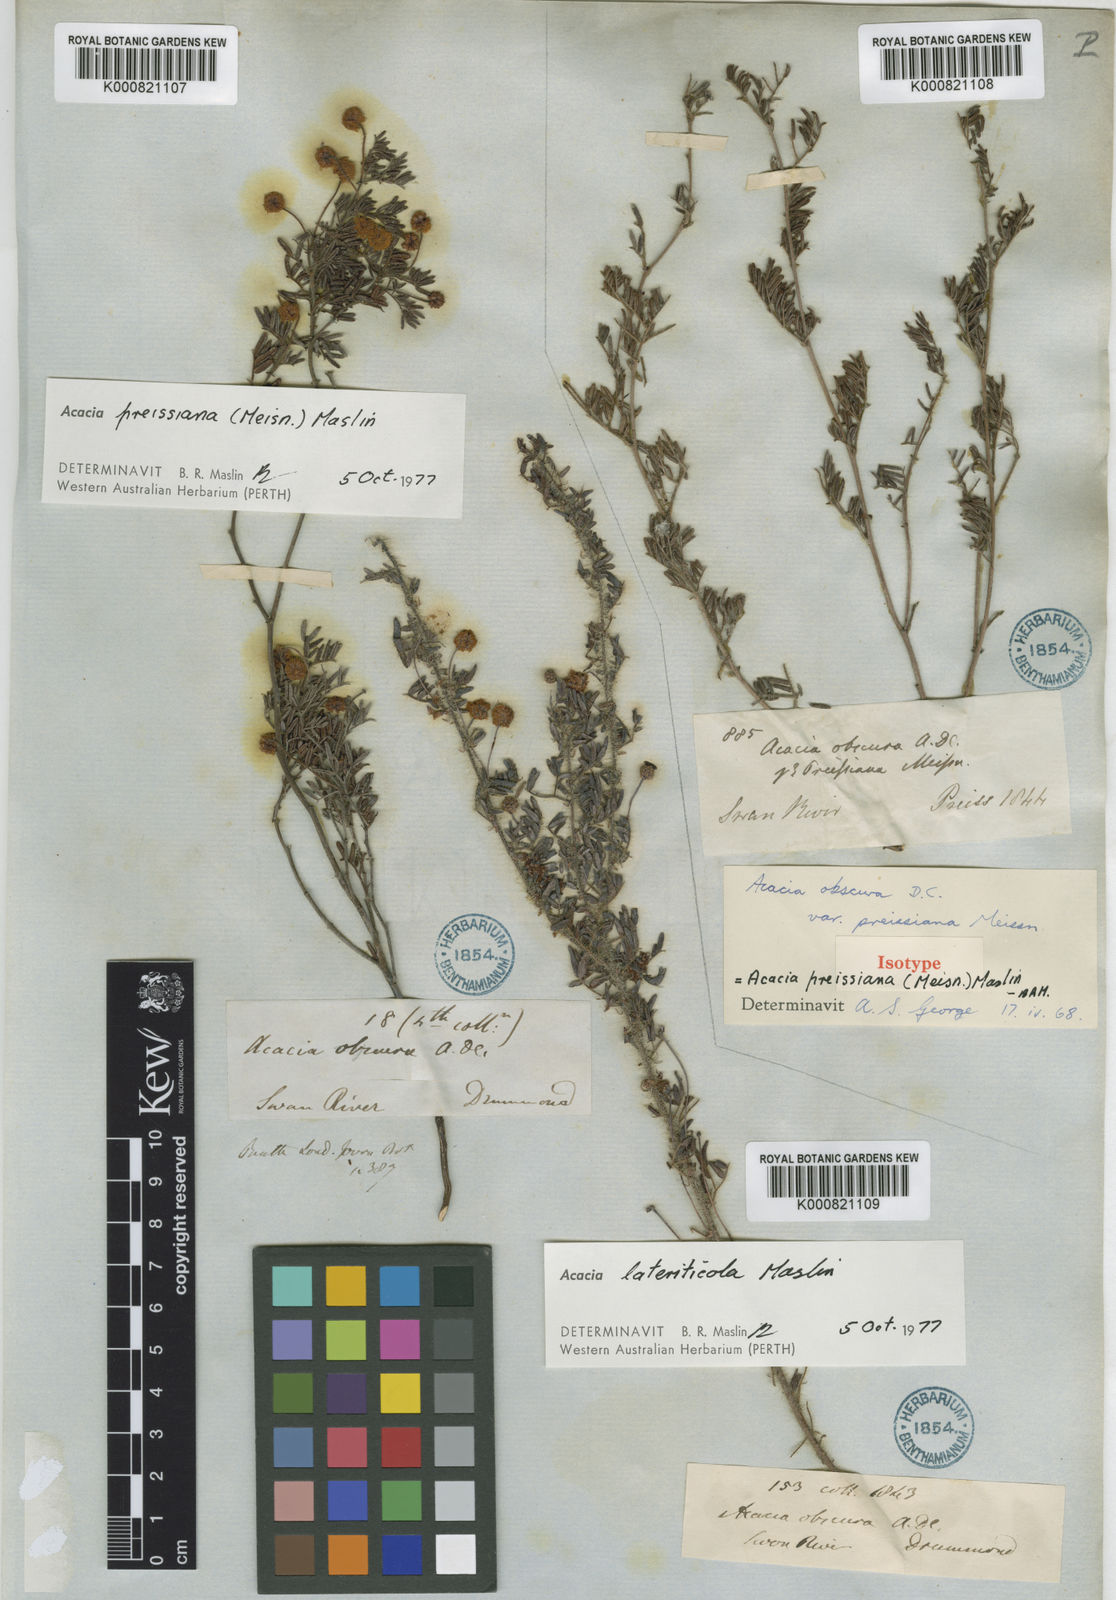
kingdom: Plantae
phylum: Tracheophyta
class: Magnoliopsida
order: Fabales
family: Fabaceae
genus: Acacia
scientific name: Acacia preissiana
